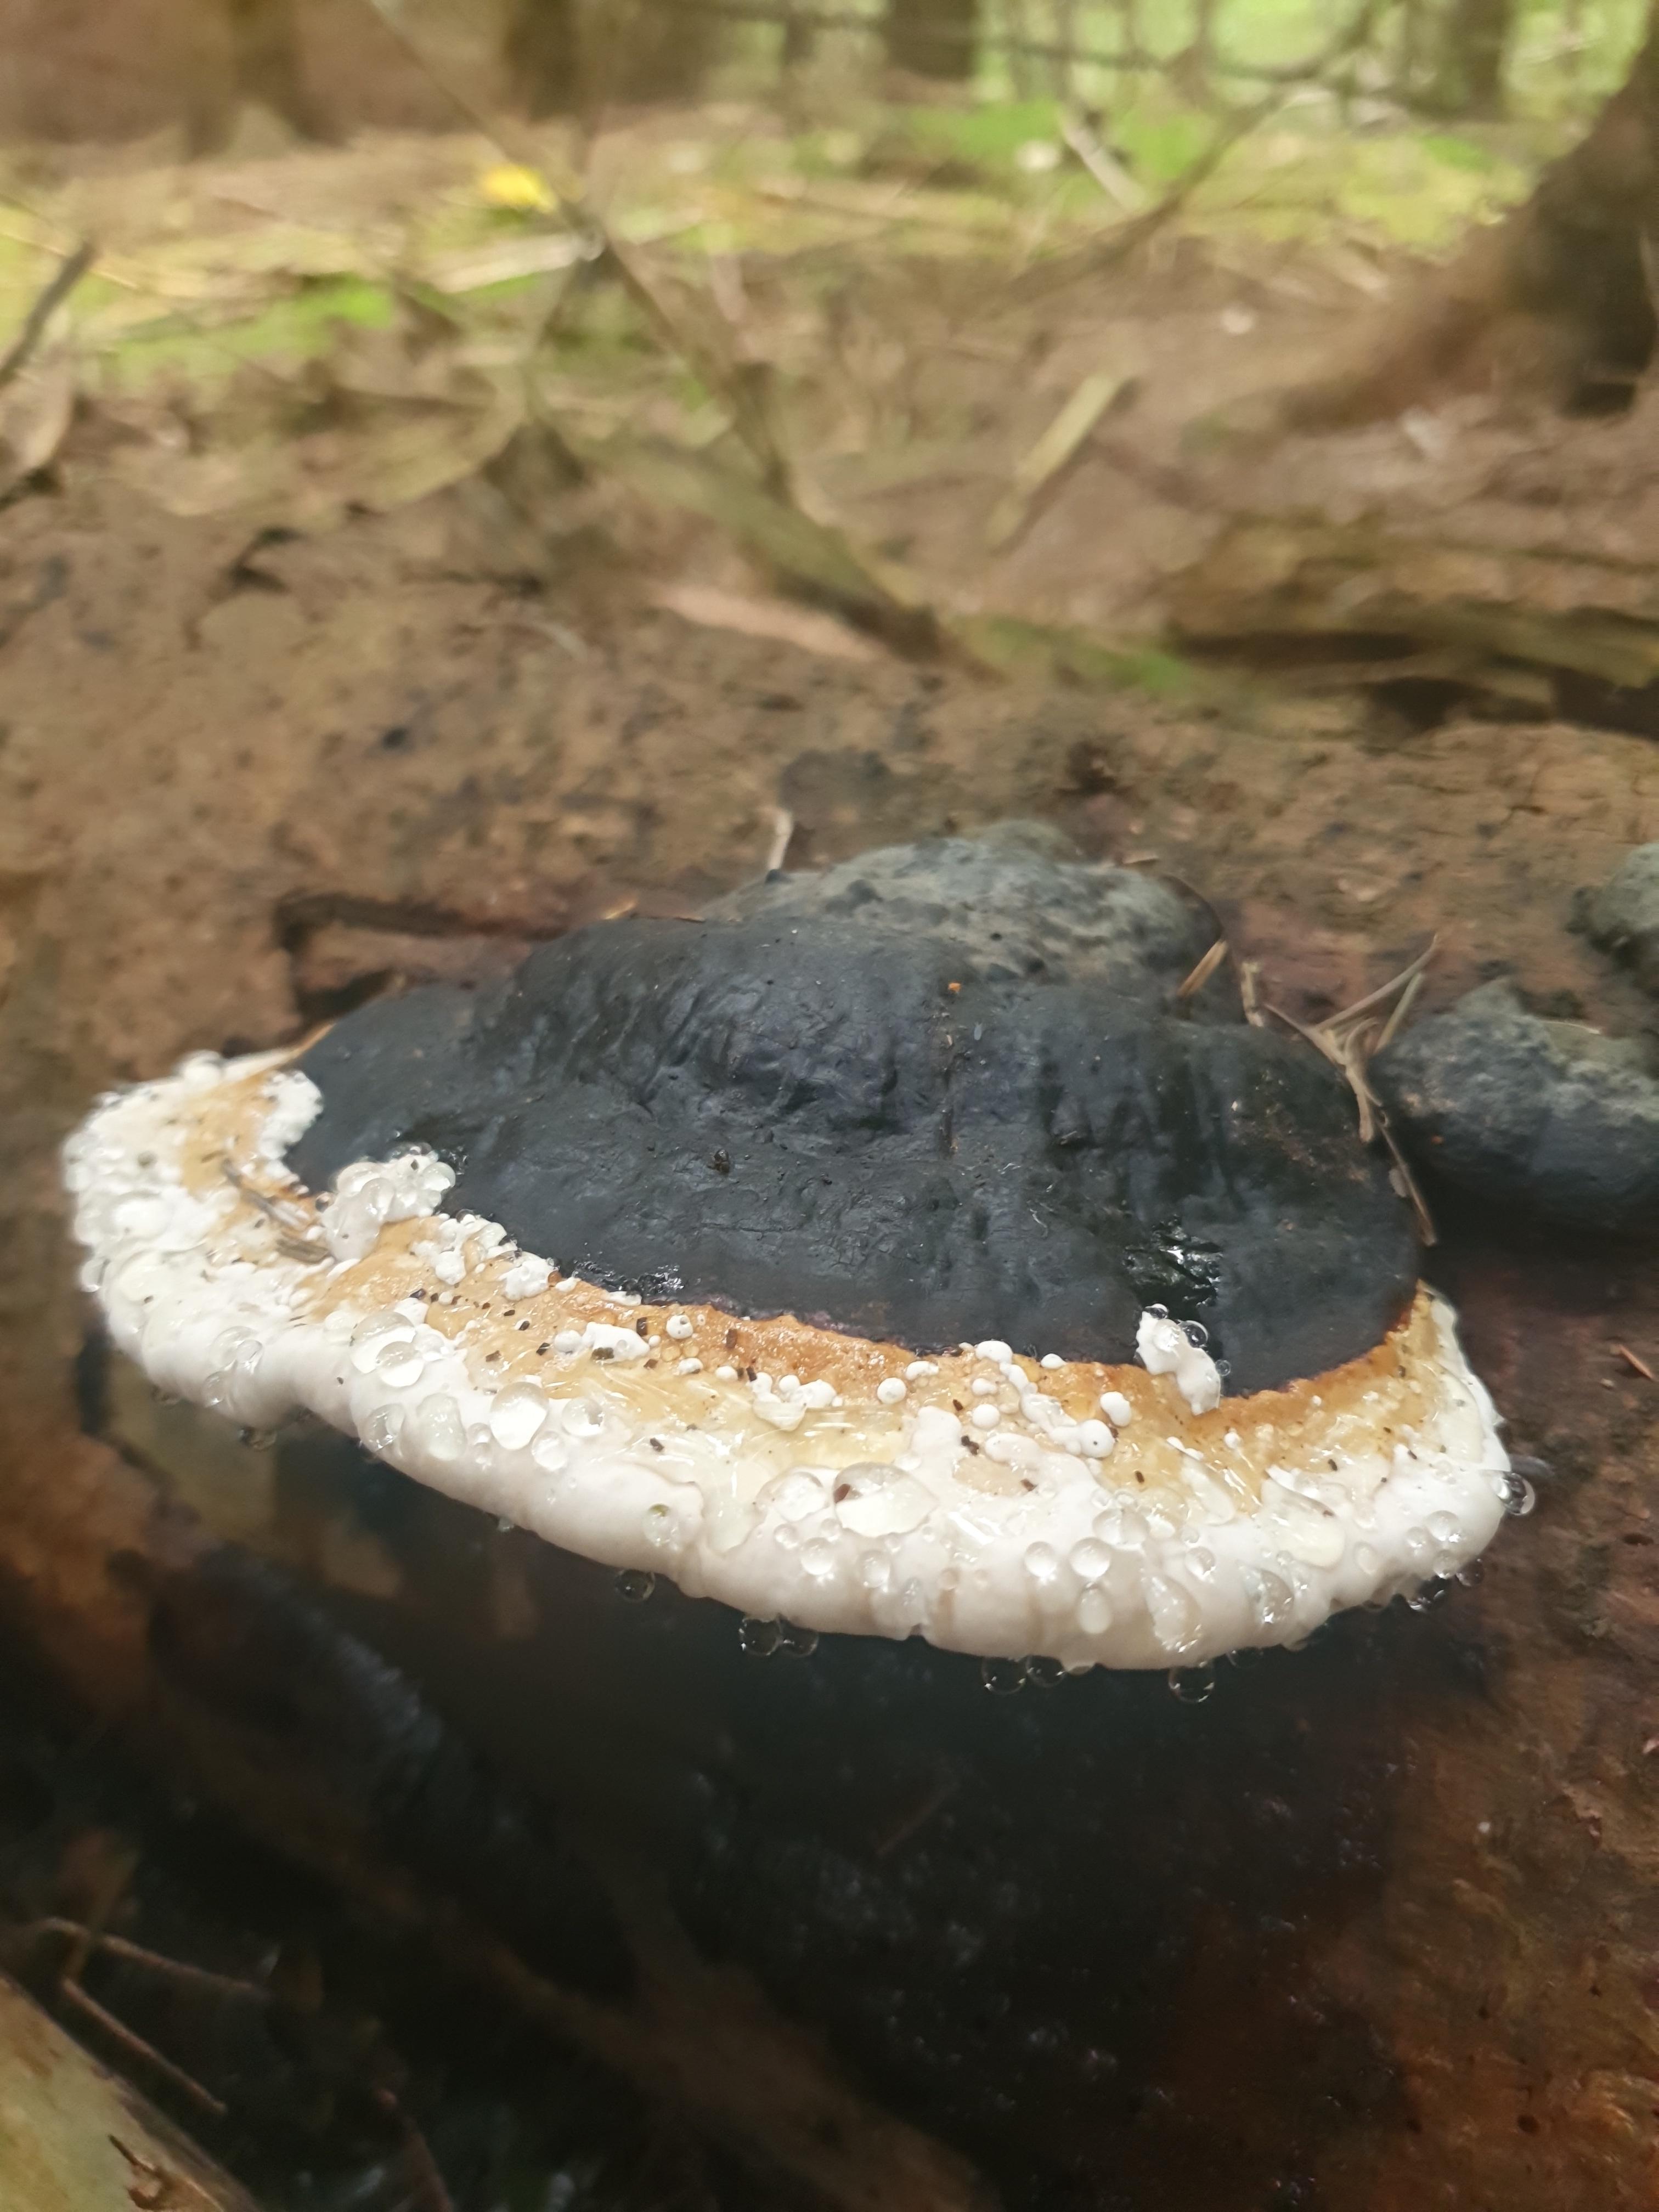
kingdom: Fungi
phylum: Basidiomycota
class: Agaricomycetes
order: Polyporales
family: Fomitopsidaceae
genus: Fomitopsis
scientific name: Fomitopsis pinicola
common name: randbæltet hovporesvamp
